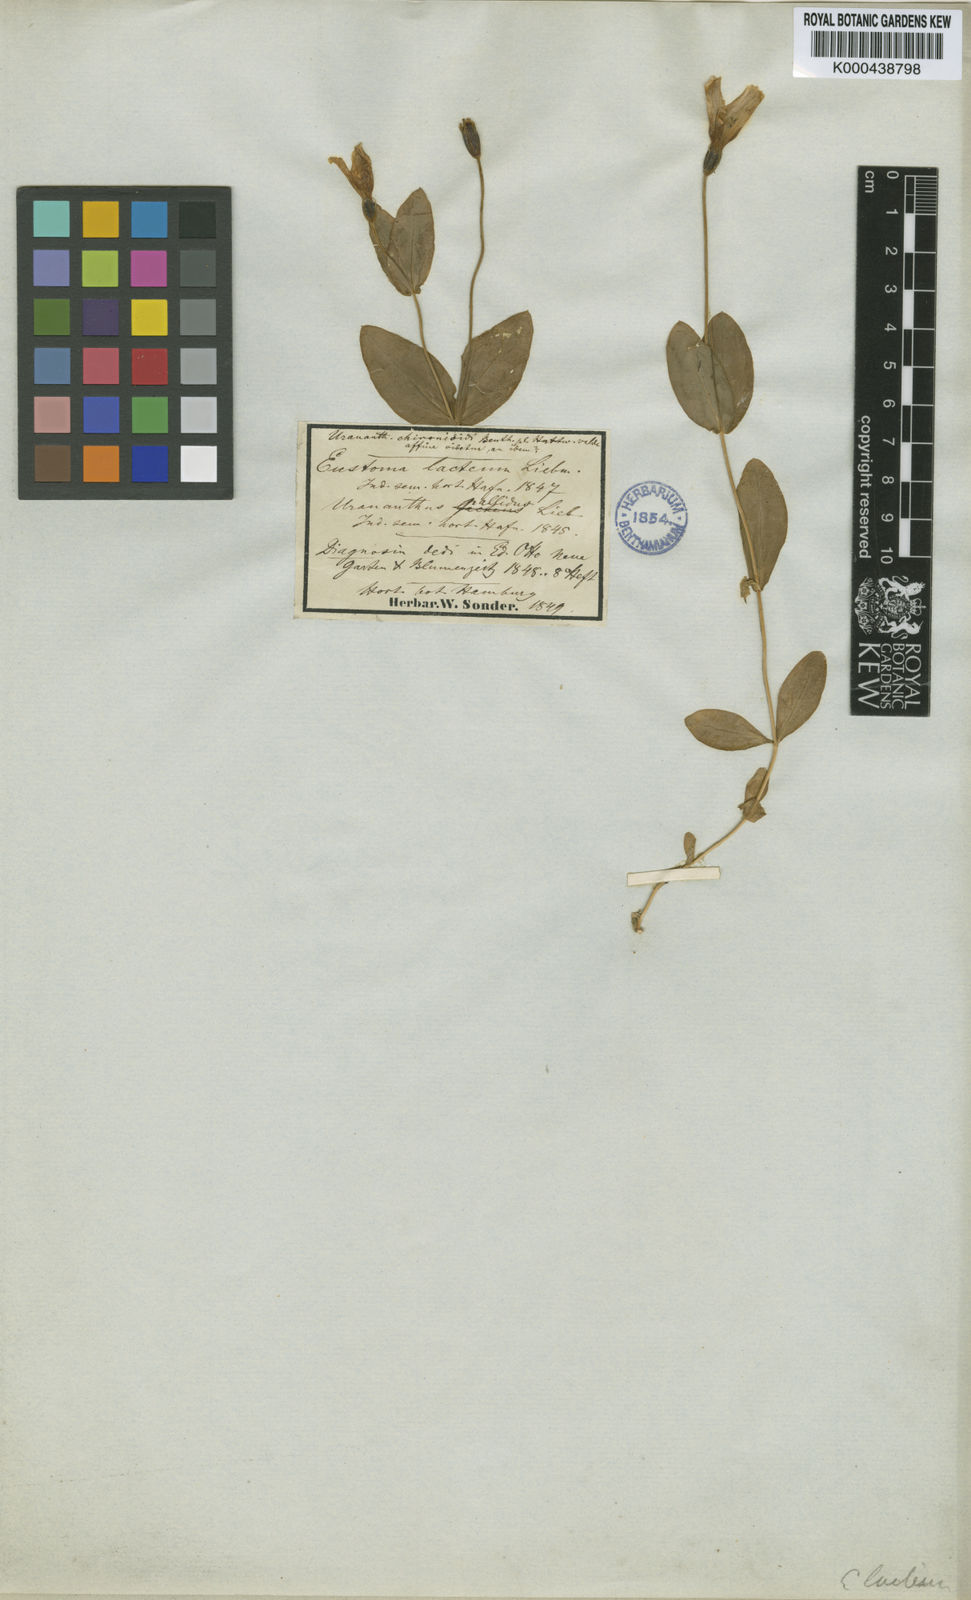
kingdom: Plantae
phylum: Tracheophyta
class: Magnoliopsida
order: Gentianales
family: Gentianaceae
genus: Eustoma
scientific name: Eustoma
